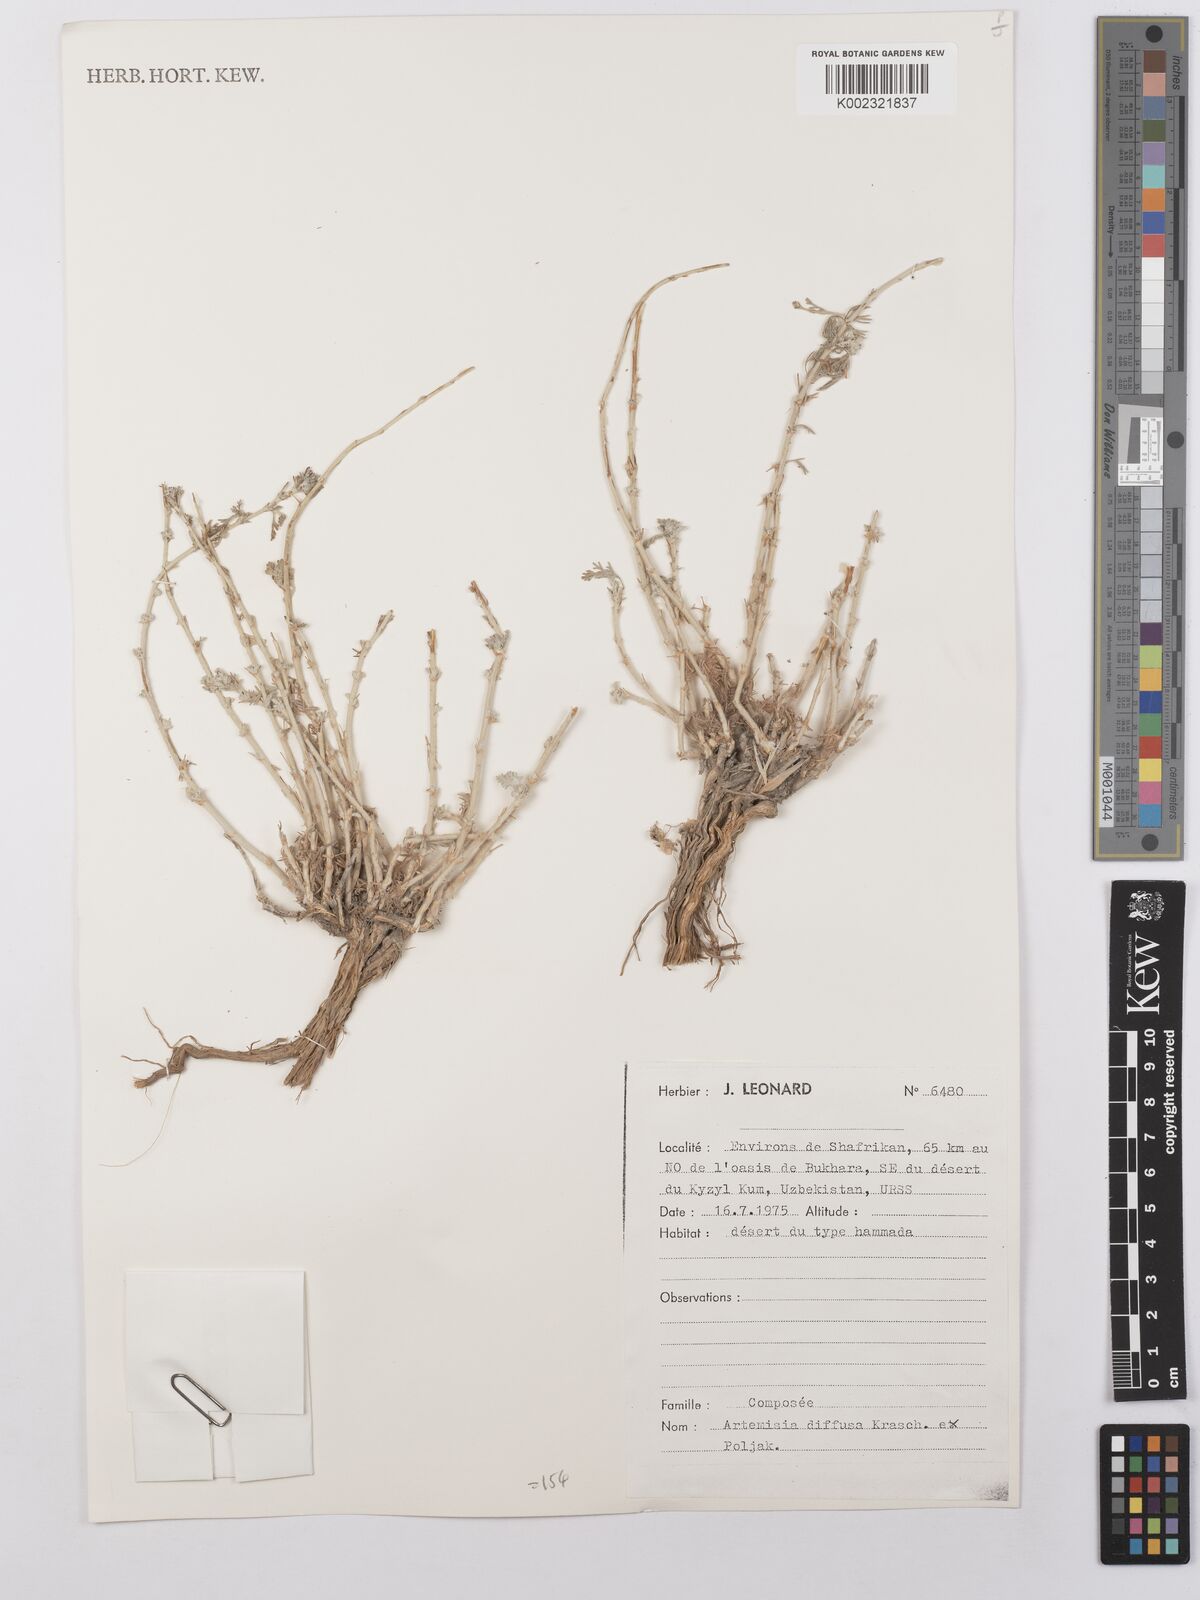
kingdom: Plantae
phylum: Tracheophyta
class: Magnoliopsida
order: Asterales
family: Asteraceae
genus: Artemisia
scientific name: Artemisia turanica
